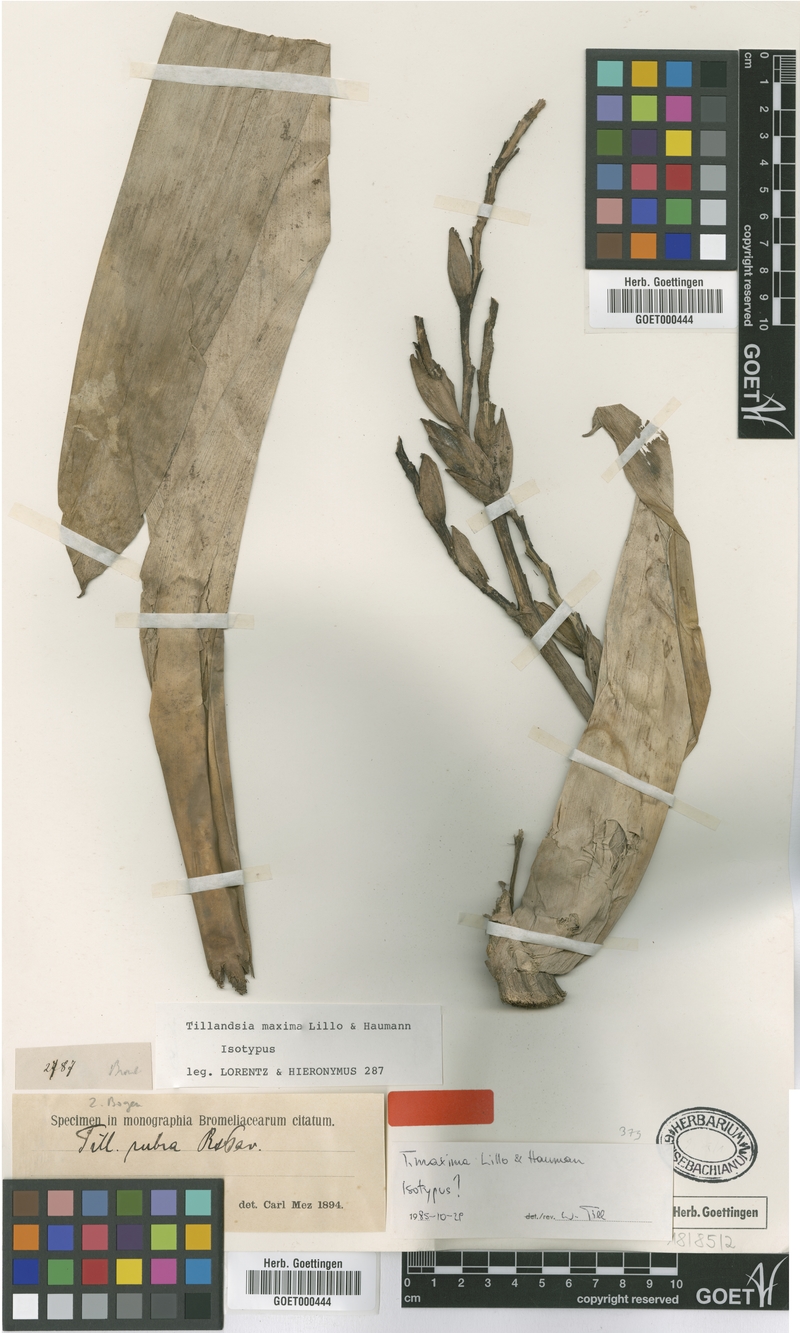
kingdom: Plantae
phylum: Tracheophyta
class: Liliopsida
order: Poales
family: Bromeliaceae
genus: Tillandsia
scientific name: Tillandsia australis
